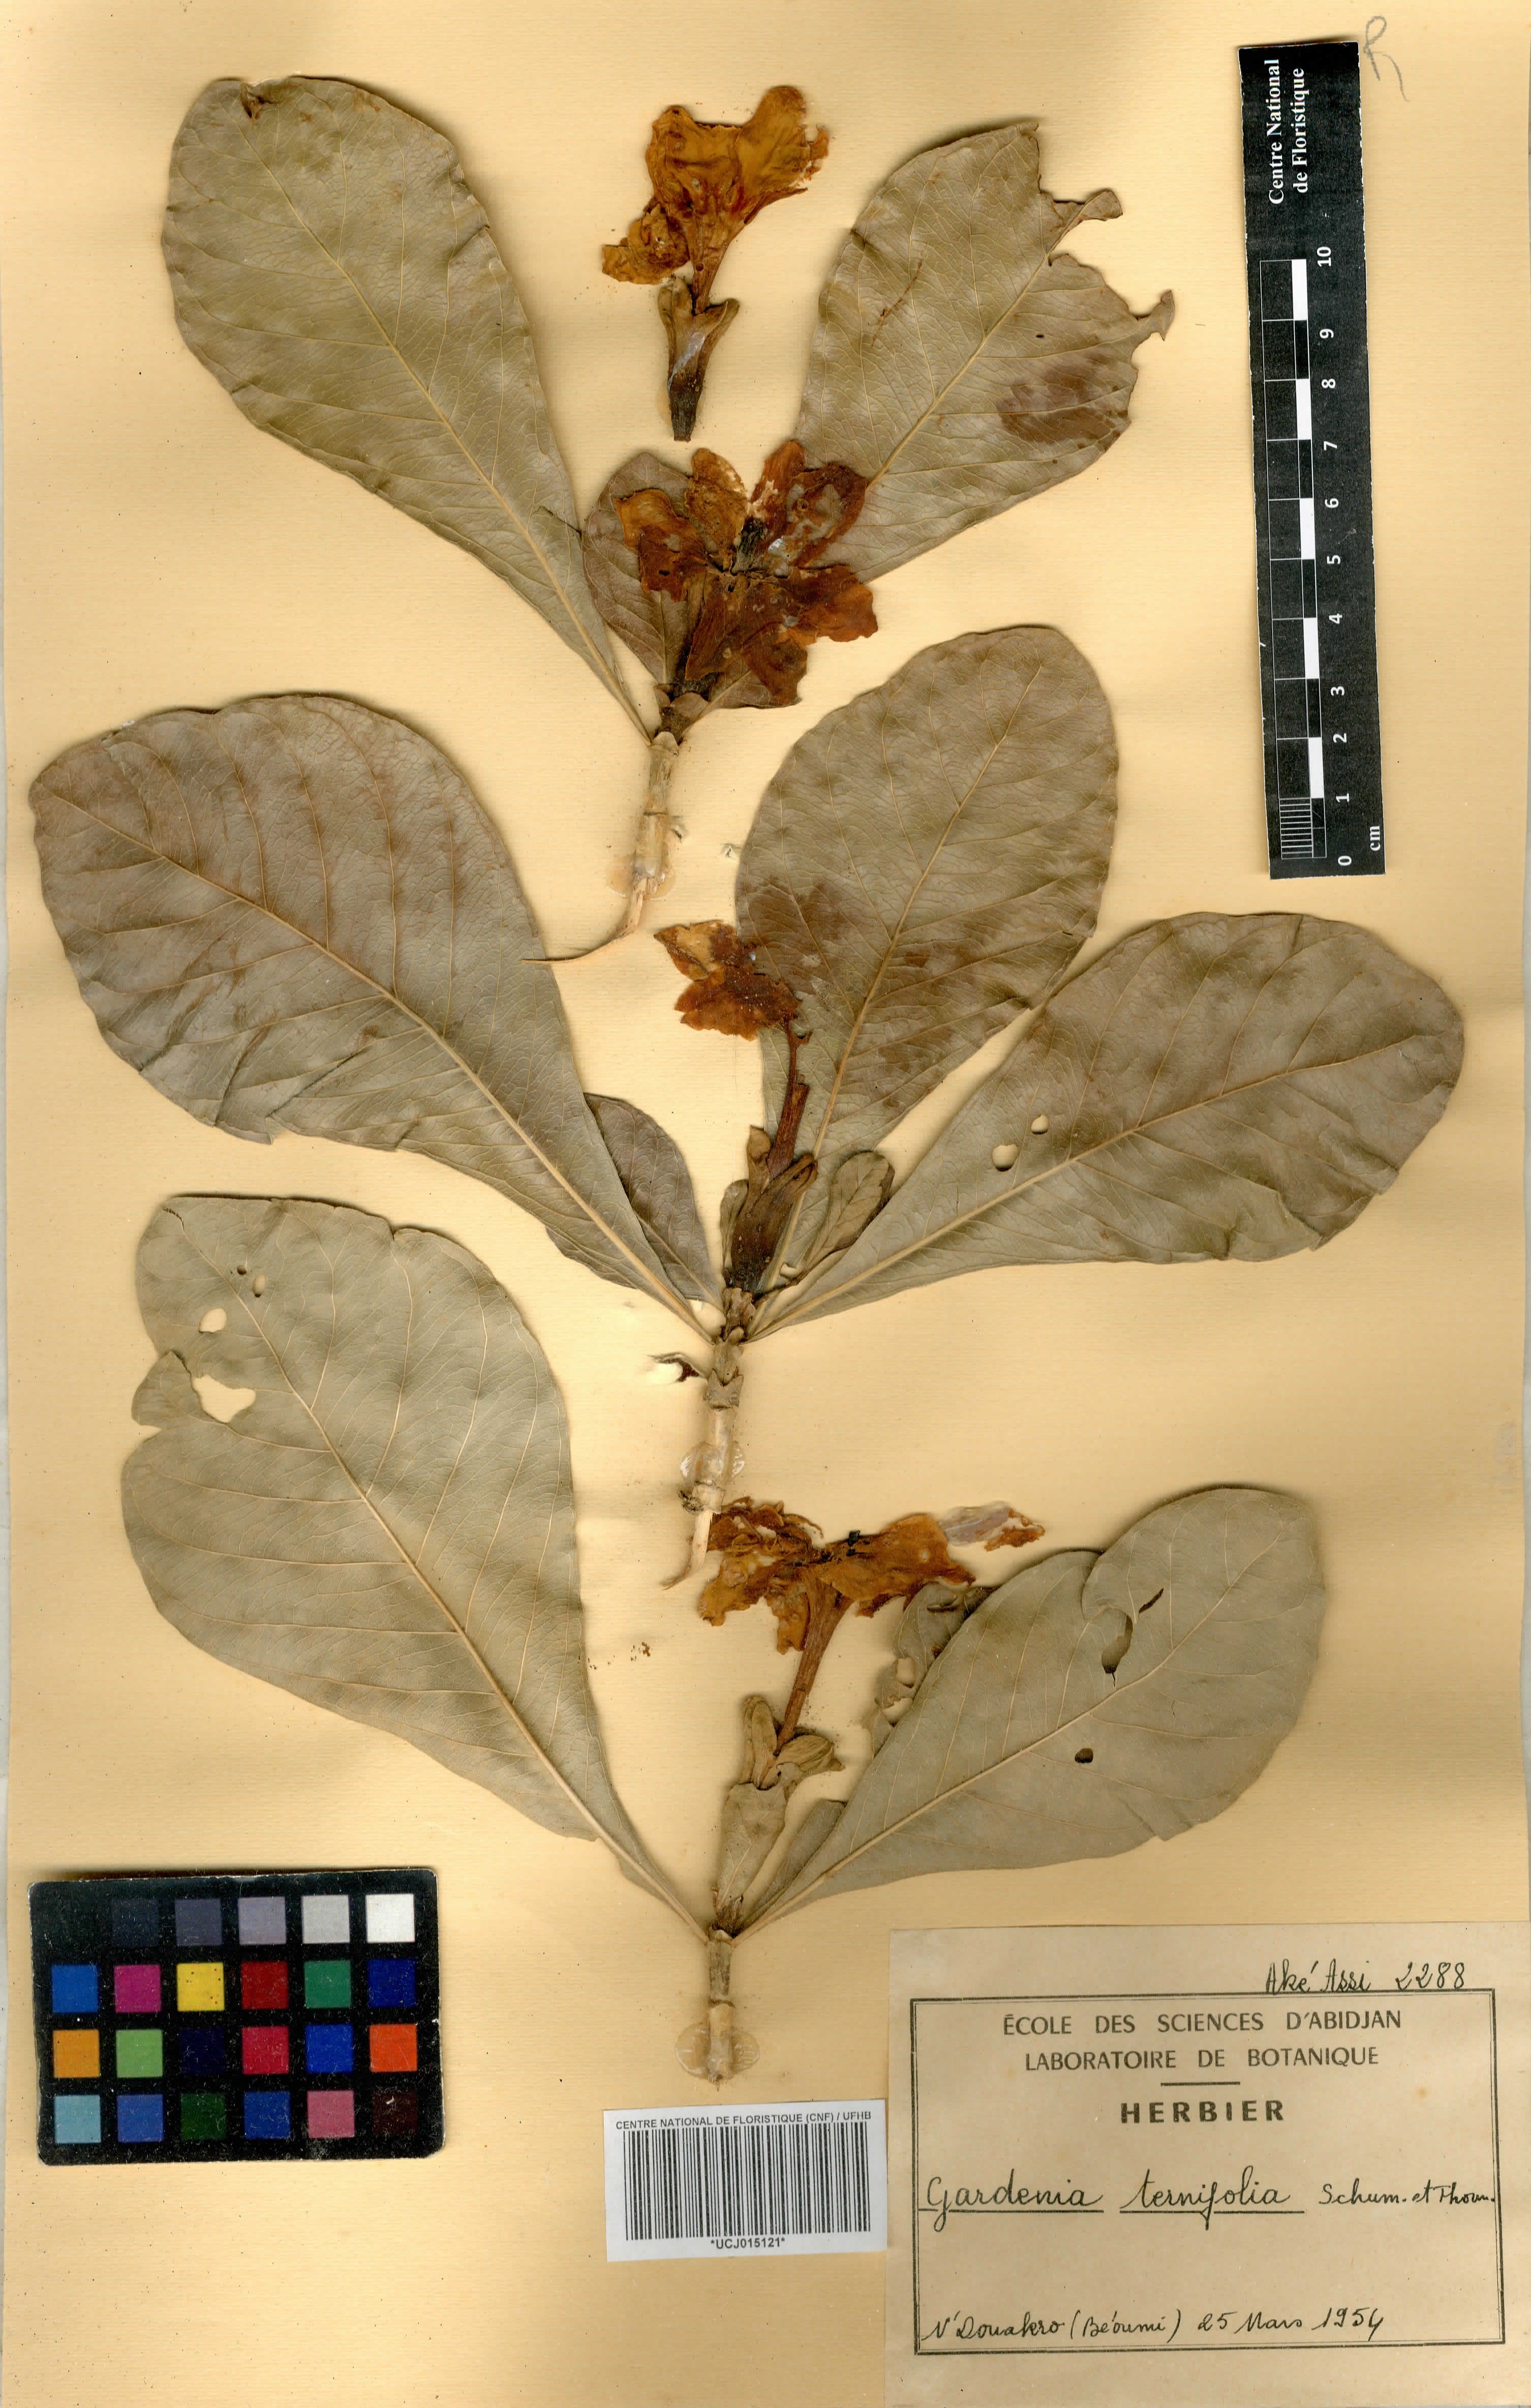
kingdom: Plantae
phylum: Tracheophyta
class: Magnoliopsida
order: Gentianales
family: Rubiaceae
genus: Gardenia
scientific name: Gardenia ternifolia
